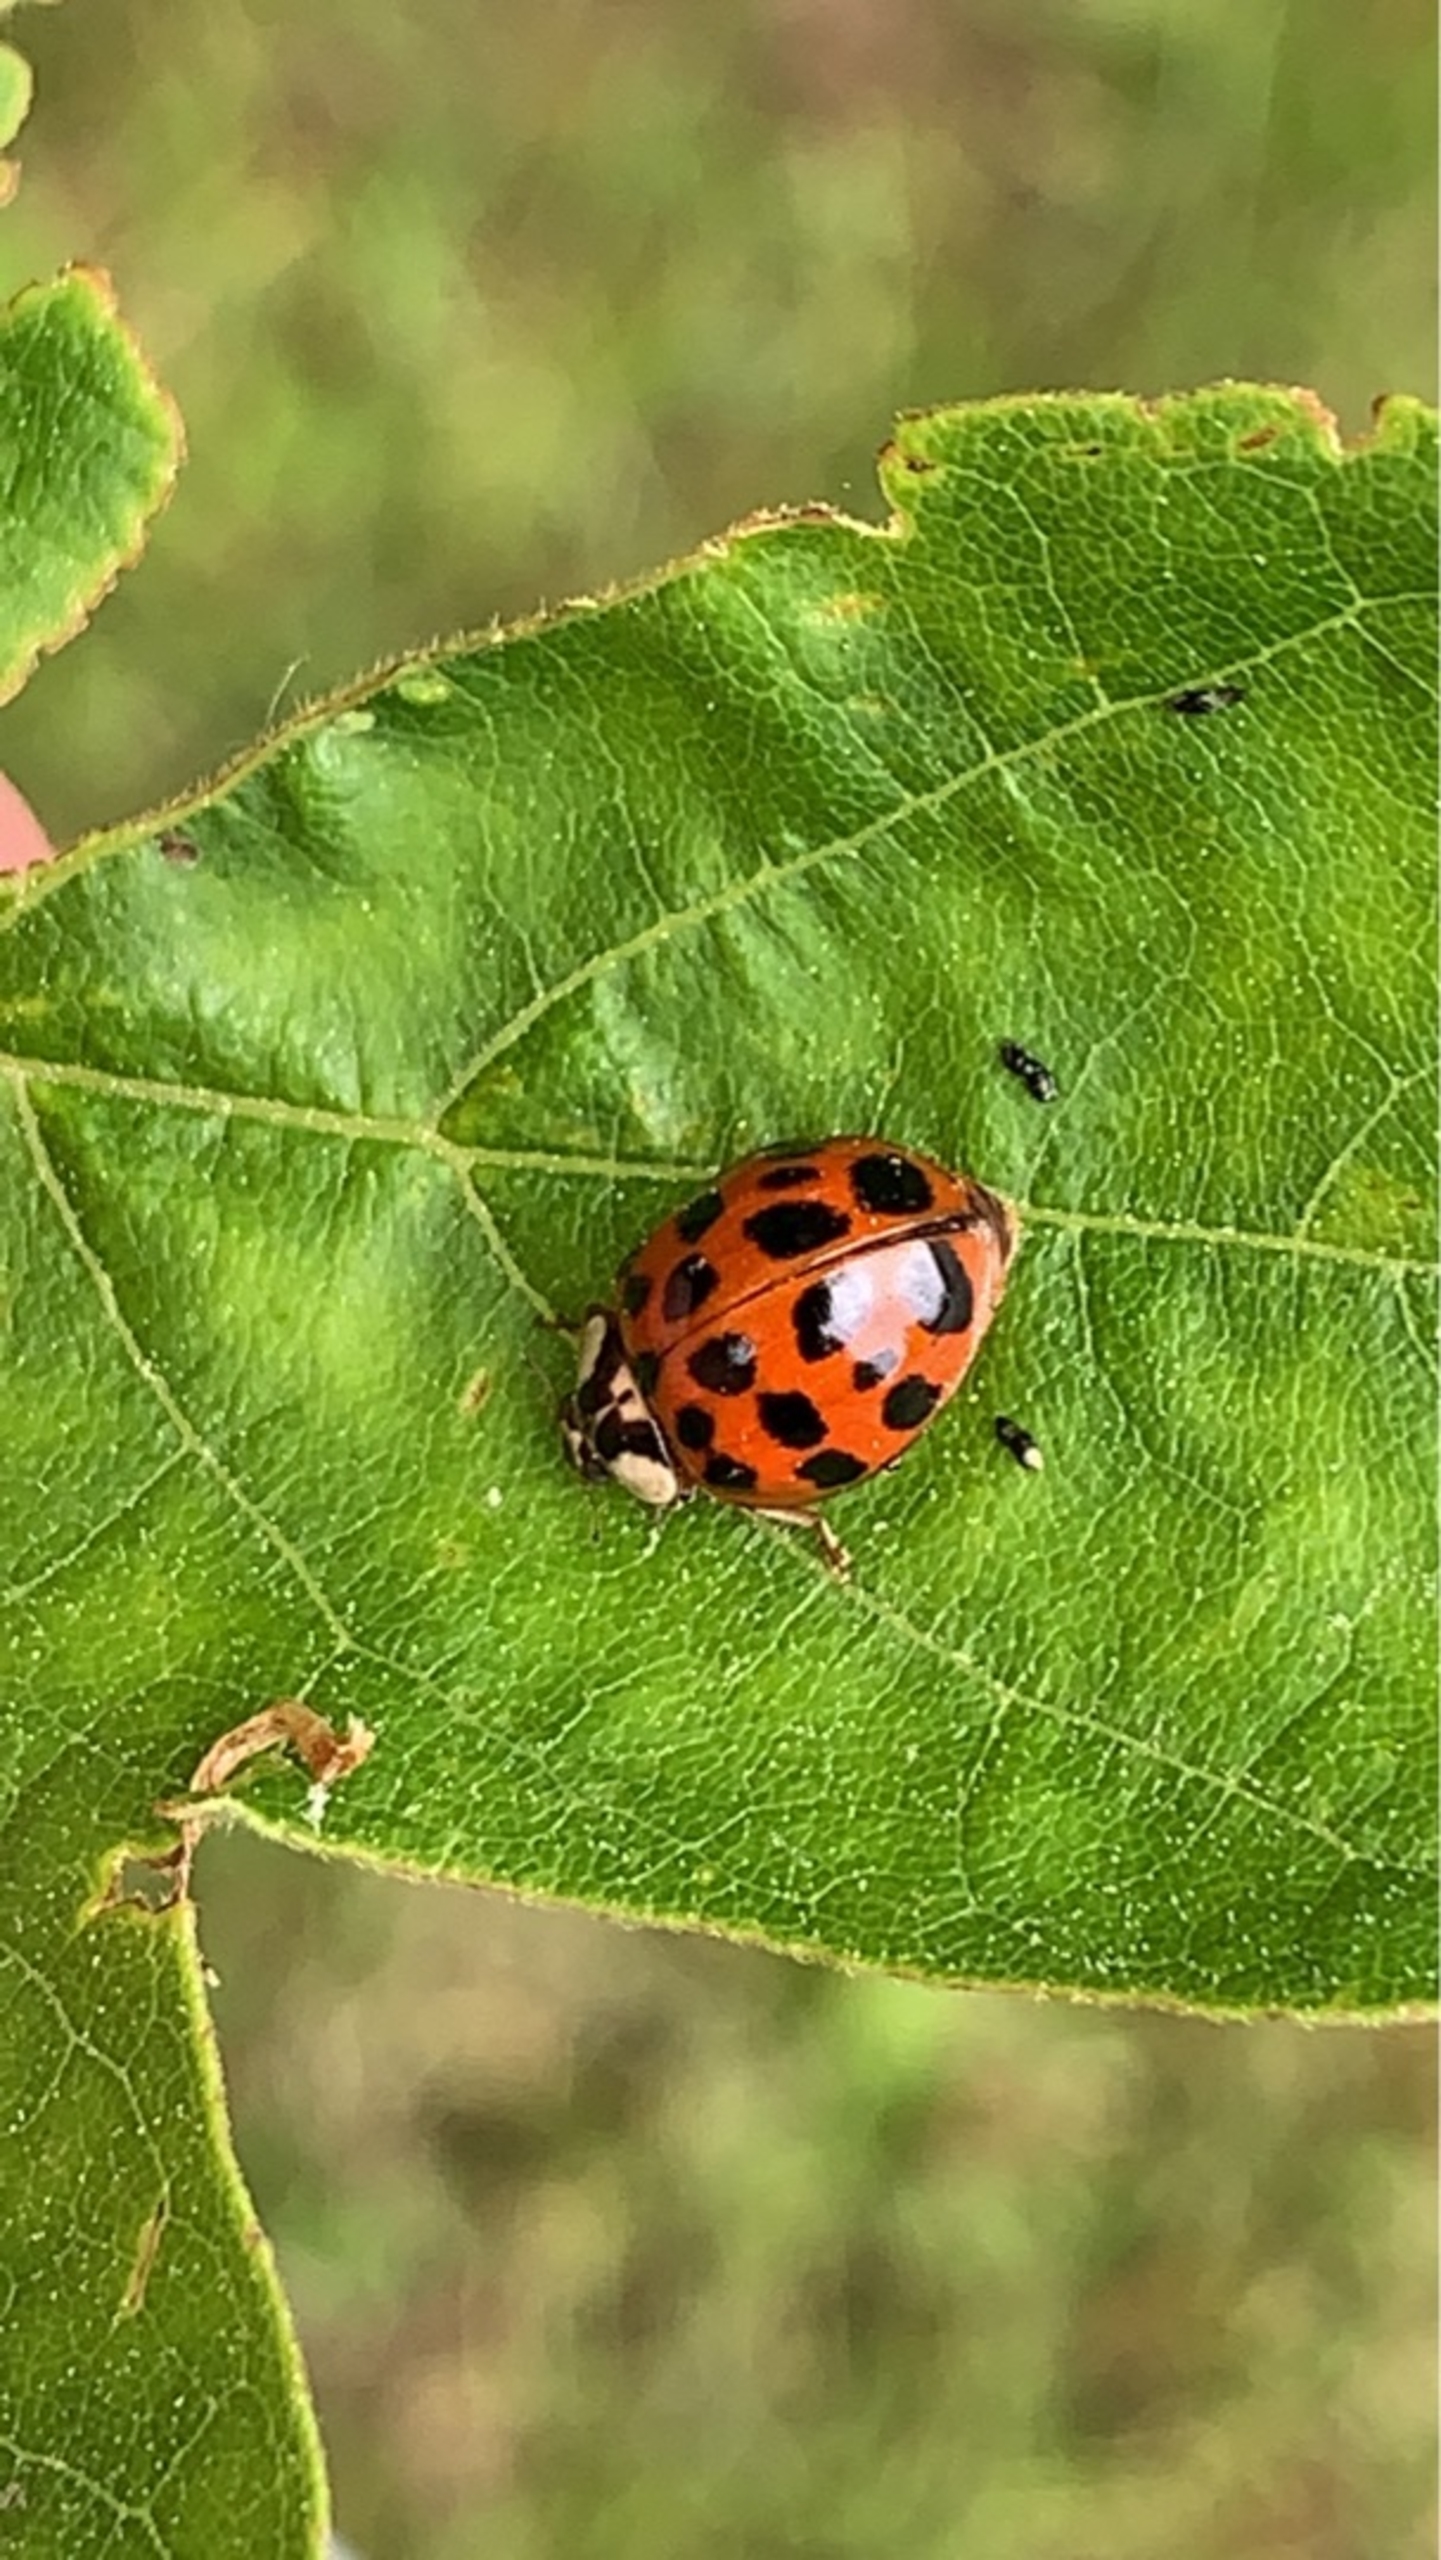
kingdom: Animalia
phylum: Arthropoda
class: Insecta
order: Coleoptera
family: Coccinellidae
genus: Harmonia
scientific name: Harmonia axyridis
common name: Harlekinmariehøne
